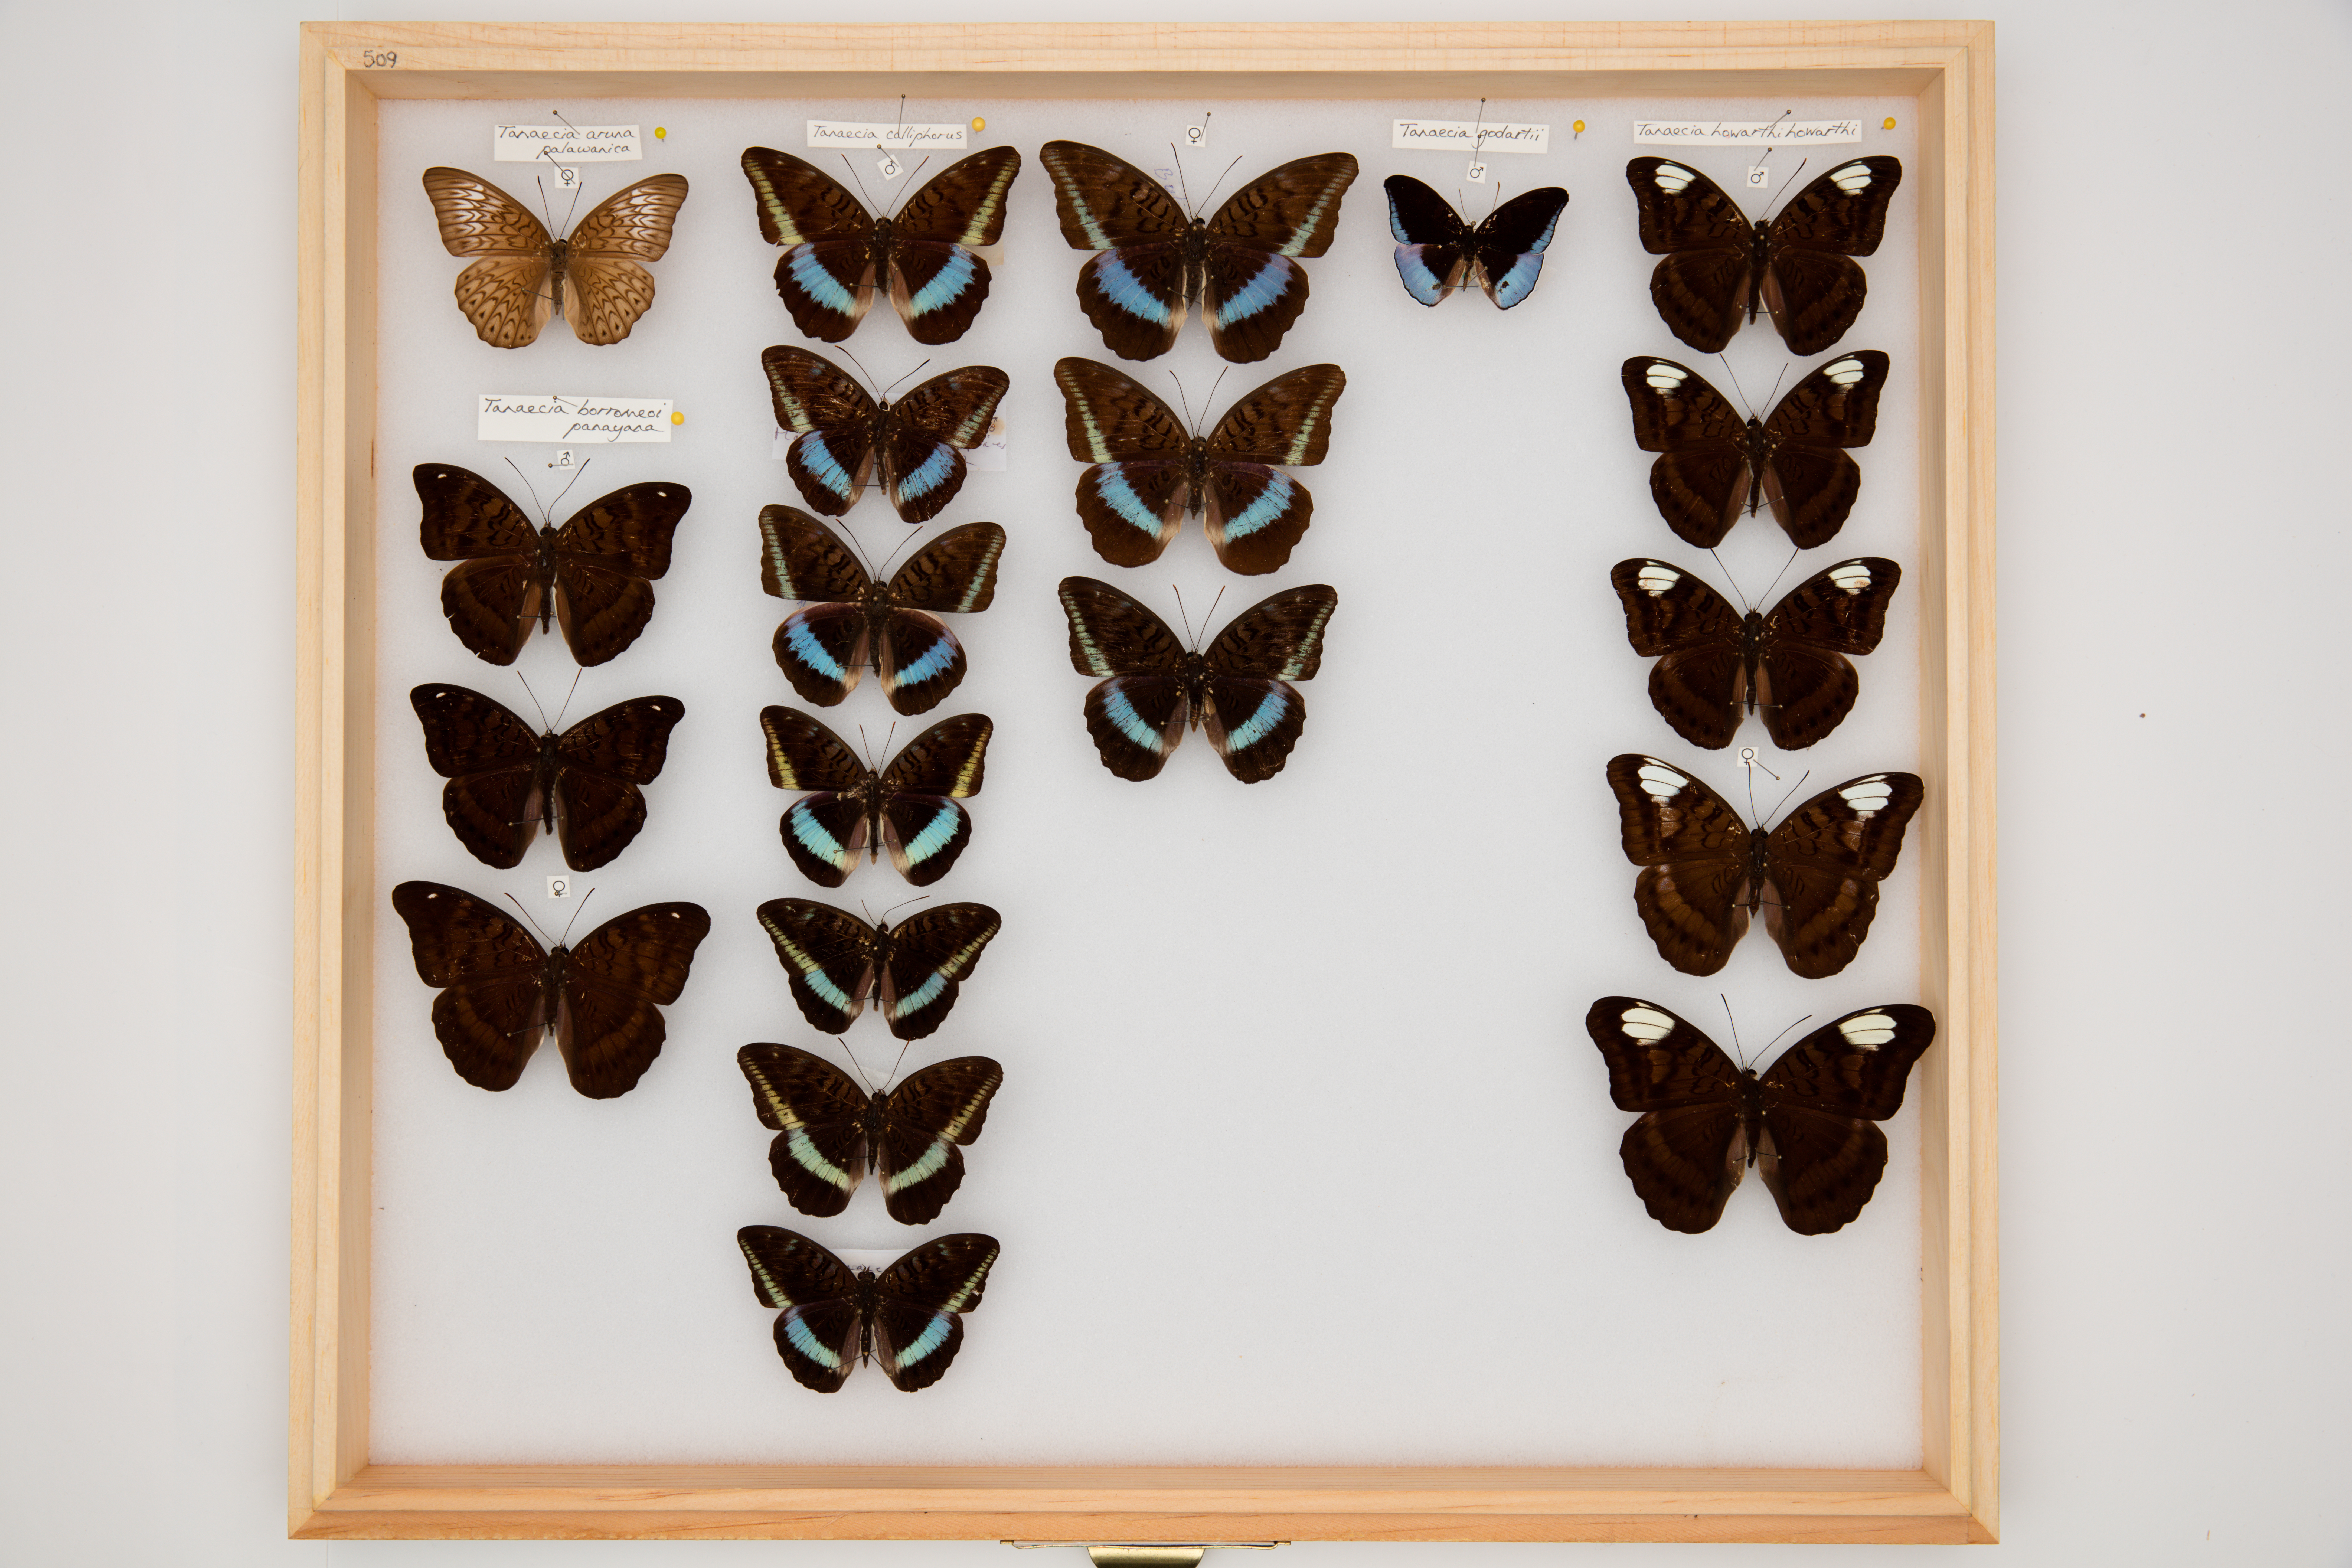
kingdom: Animalia
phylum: Arthropoda
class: Insecta
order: Lepidoptera
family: Nymphalidae
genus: Tanaecia
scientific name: Tanaecia calliphorus
